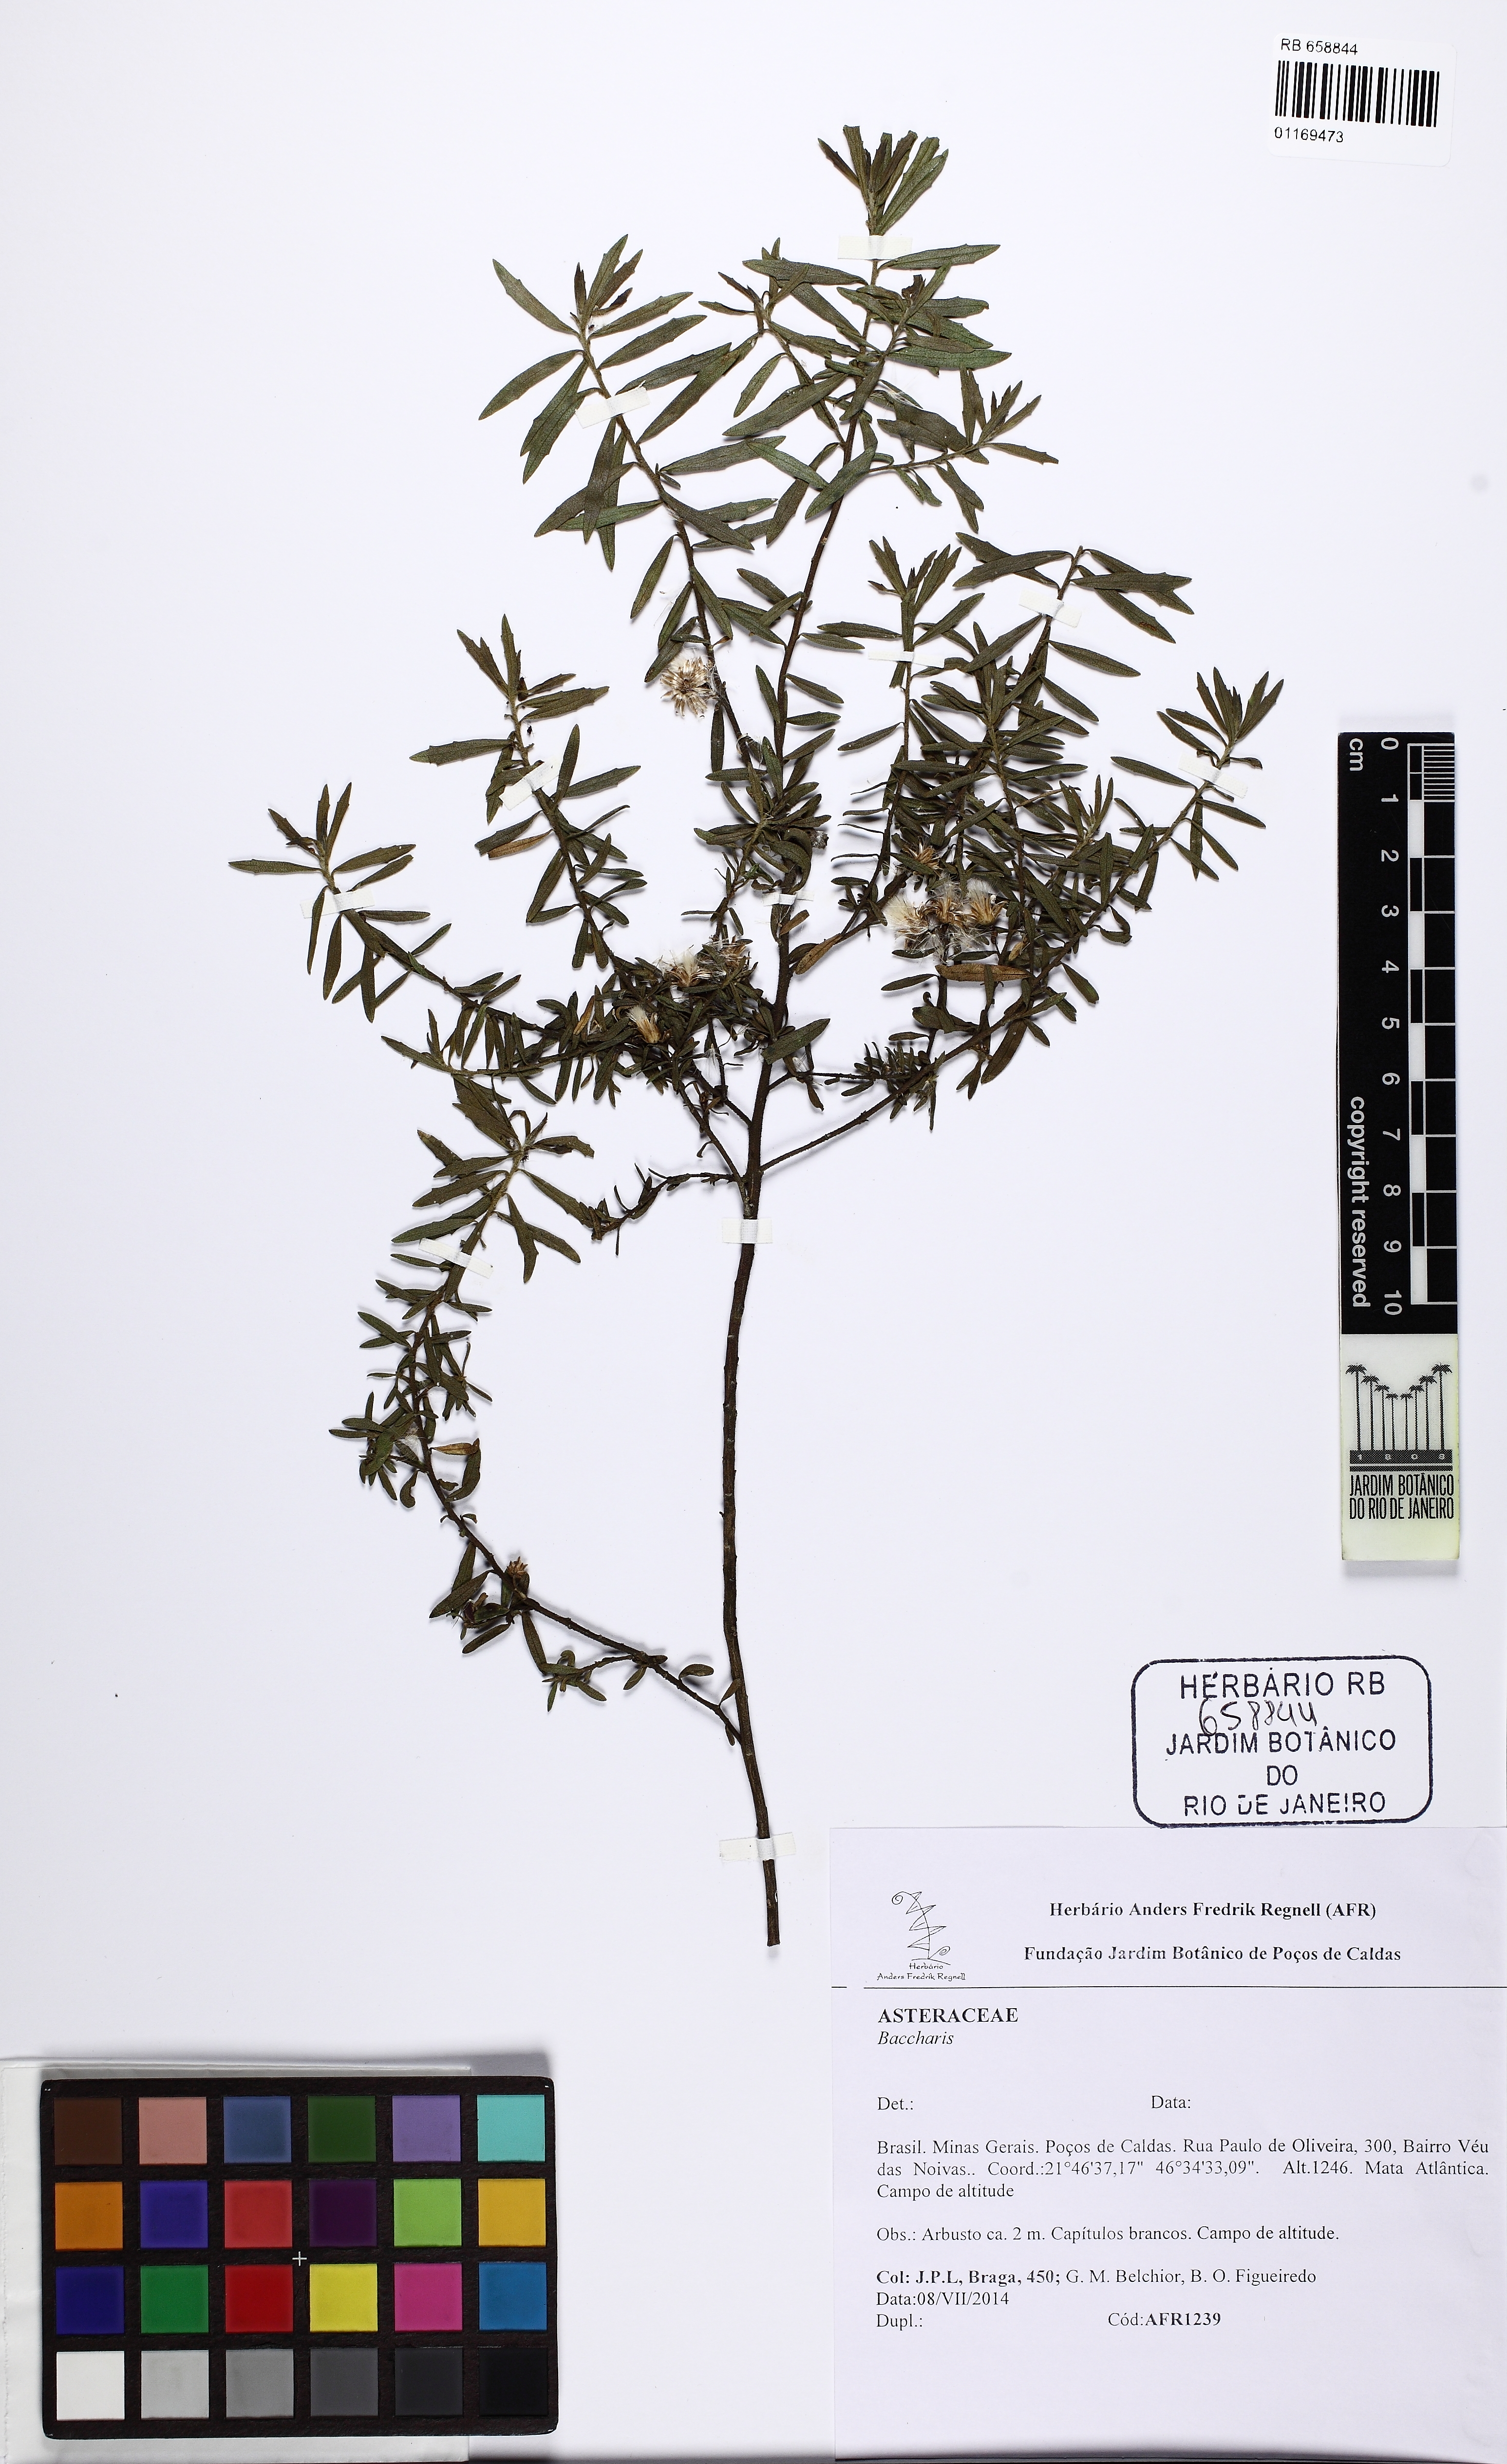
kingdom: Plantae
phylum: Tracheophyta
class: Magnoliopsida
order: Asterales
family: Asteraceae
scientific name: Asteraceae
